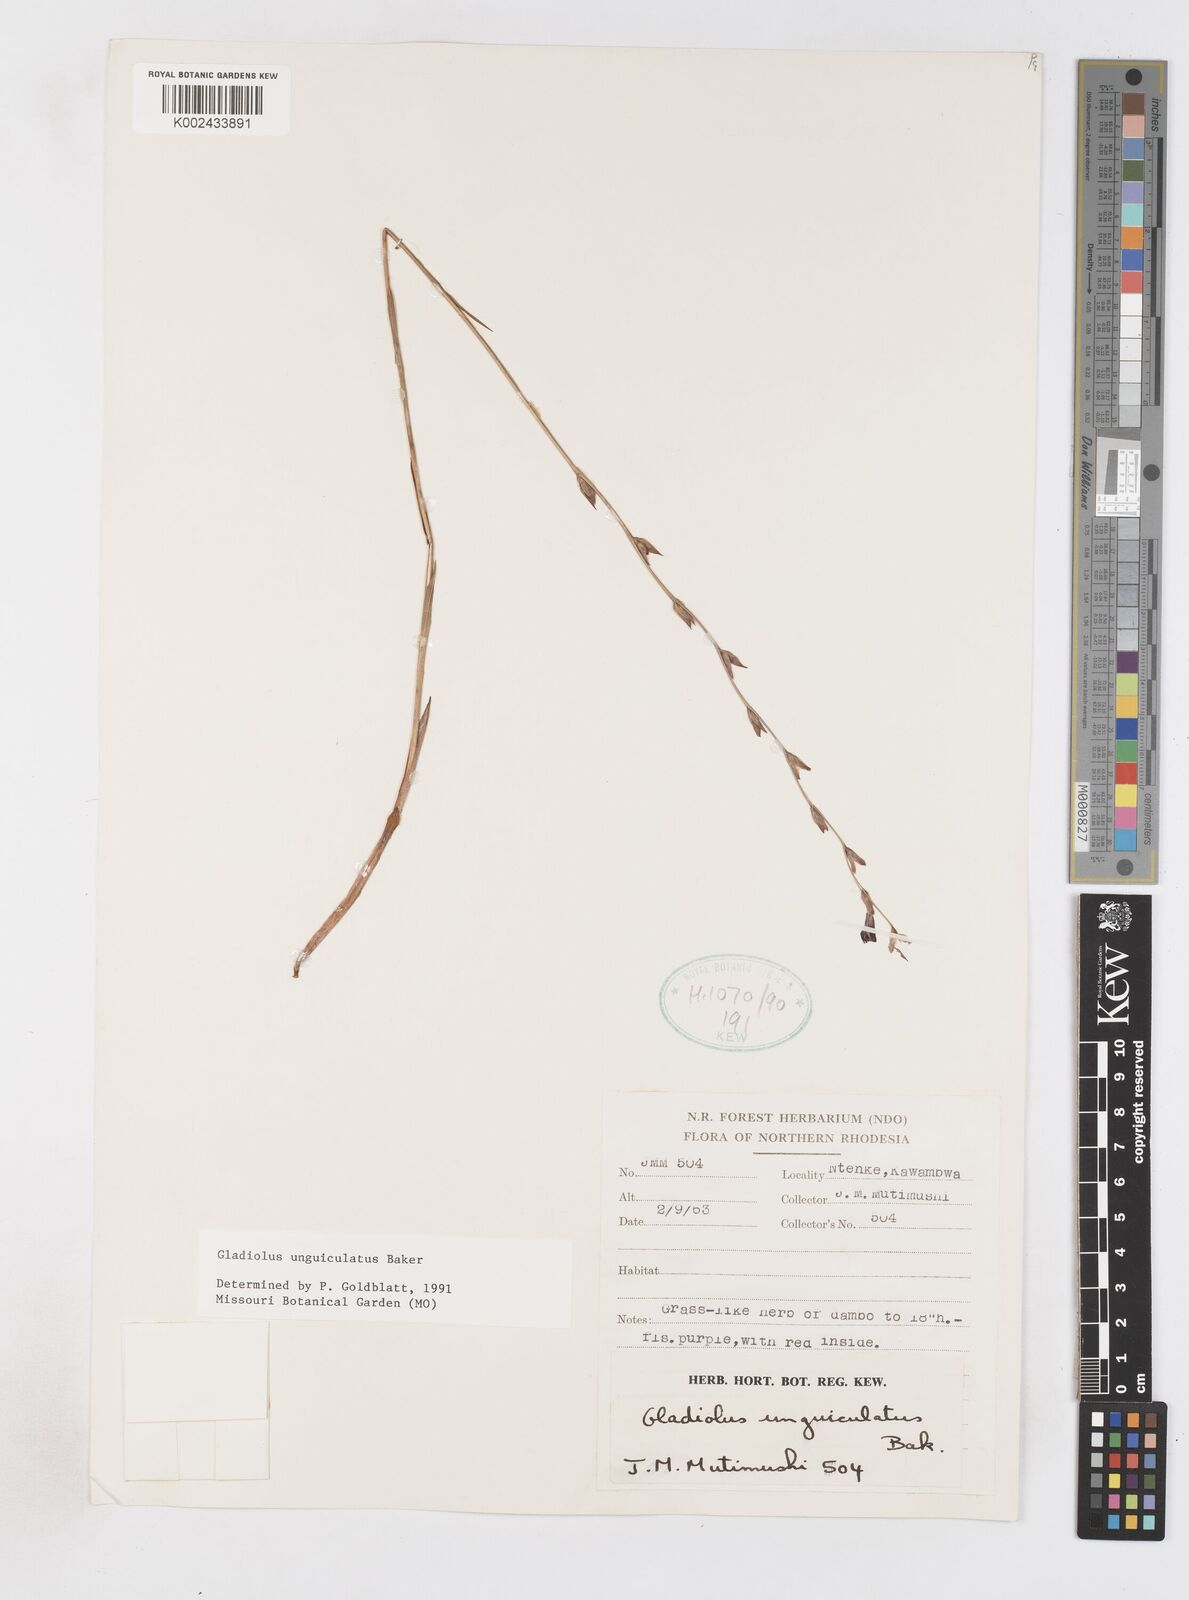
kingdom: Plantae
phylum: Tracheophyta
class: Liliopsida
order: Asparagales
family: Iridaceae
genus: Gladiolus
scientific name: Gladiolus unguiculatus
